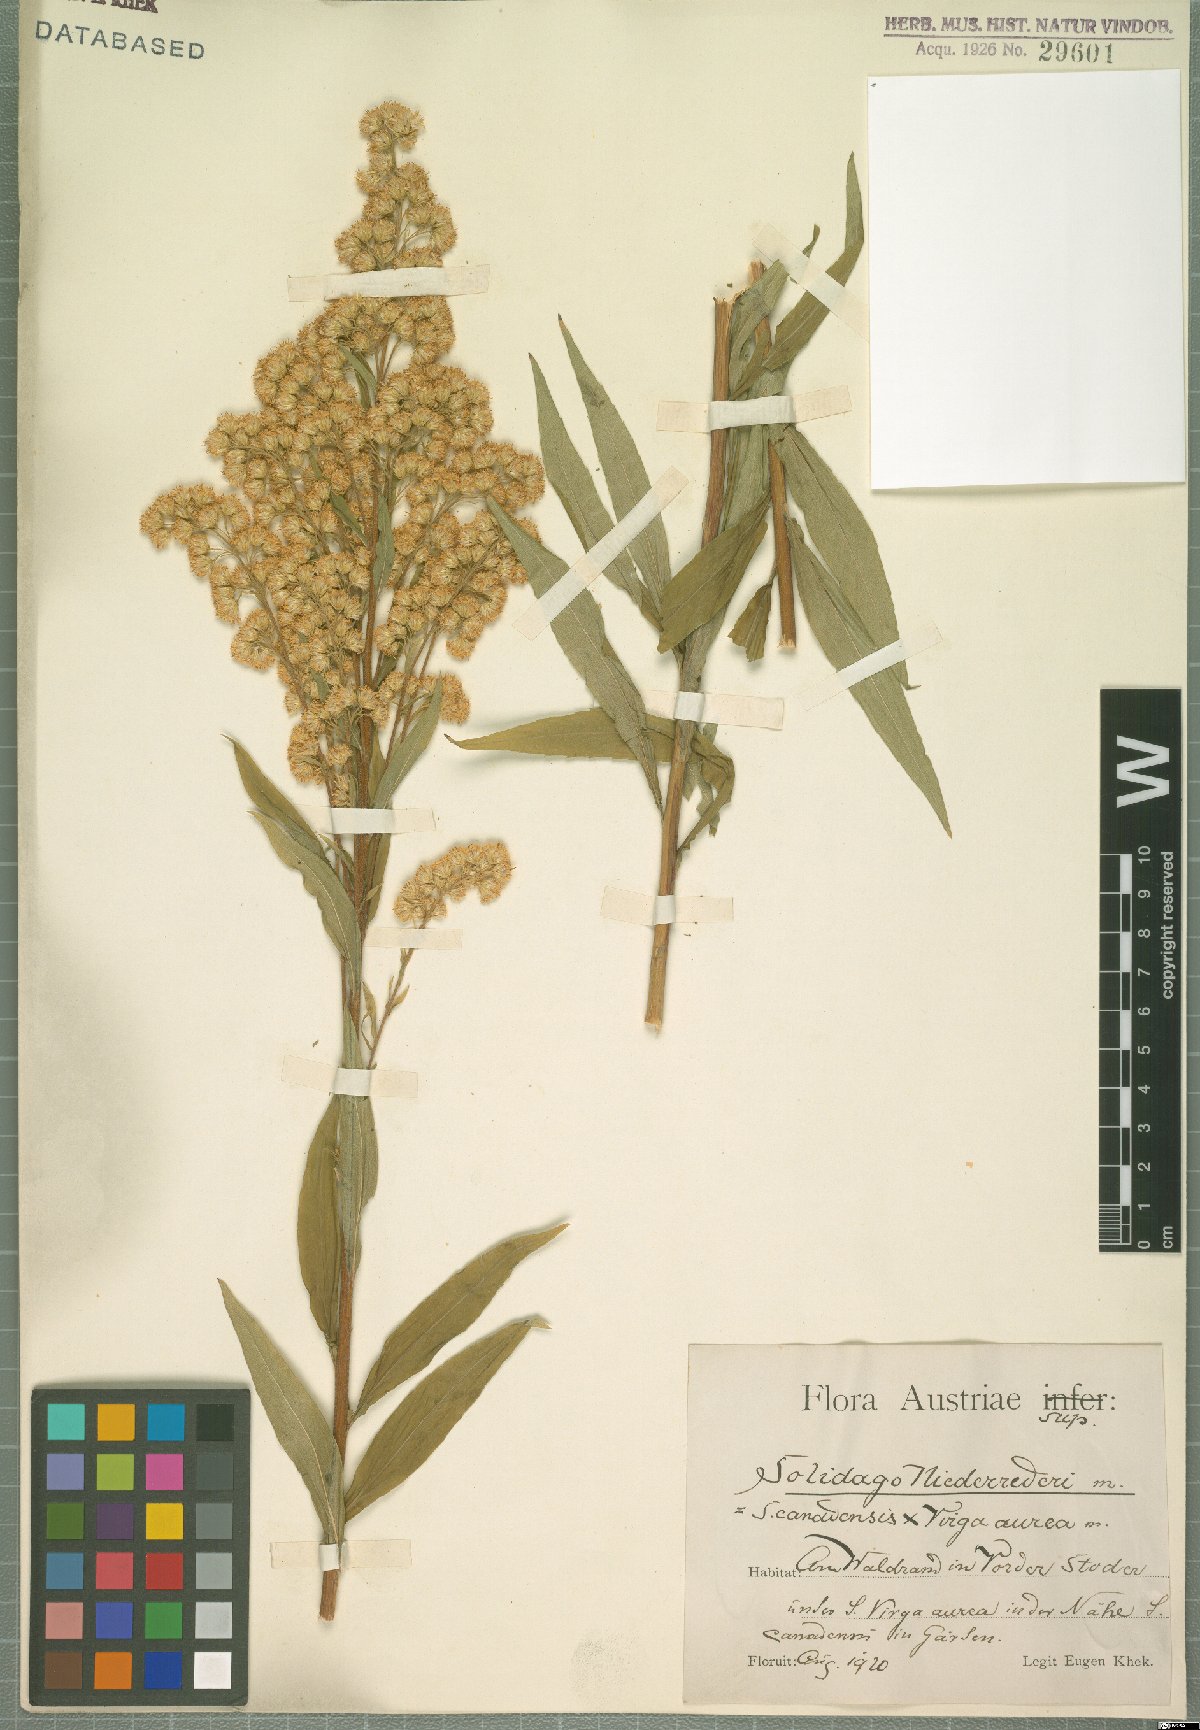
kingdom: Plantae
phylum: Tracheophyta
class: Magnoliopsida
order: Asterales
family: Asteraceae
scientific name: Asteraceae
